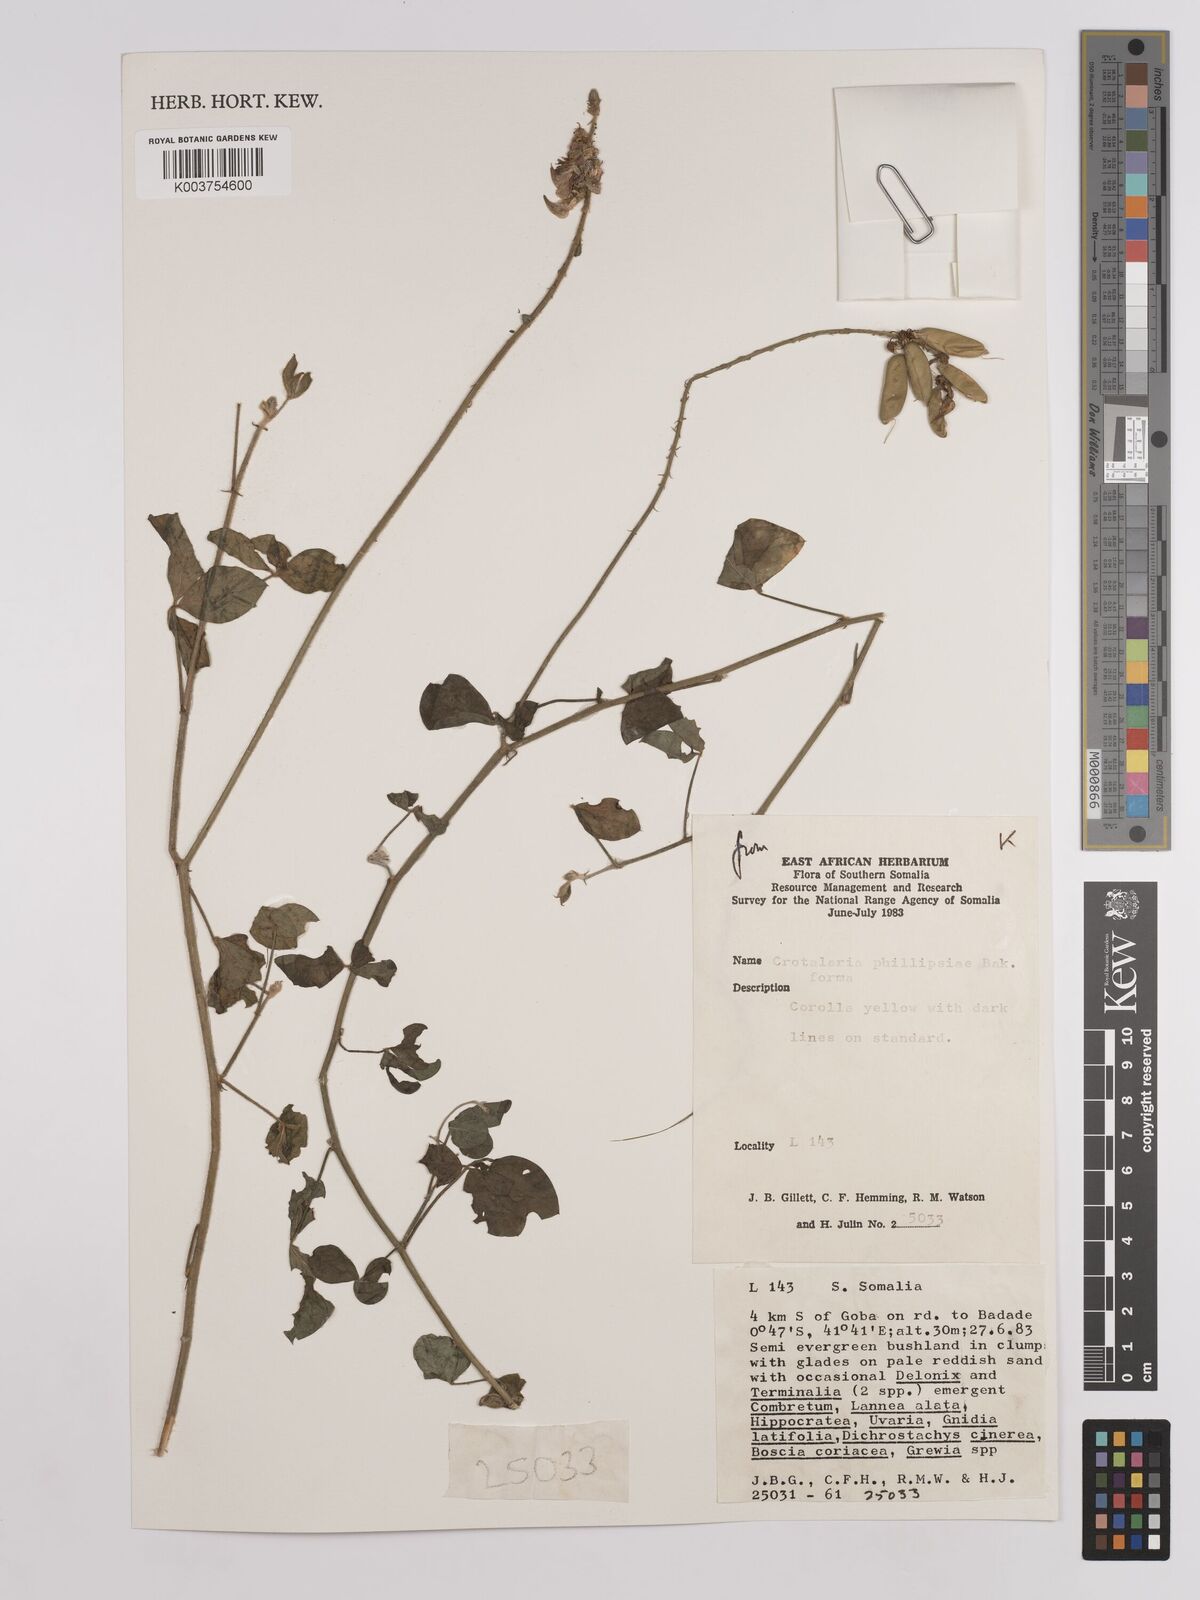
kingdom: Plantae
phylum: Tracheophyta
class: Magnoliopsida
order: Fabales
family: Fabaceae
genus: Crotalaria
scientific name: Crotalaria phillipsiae
